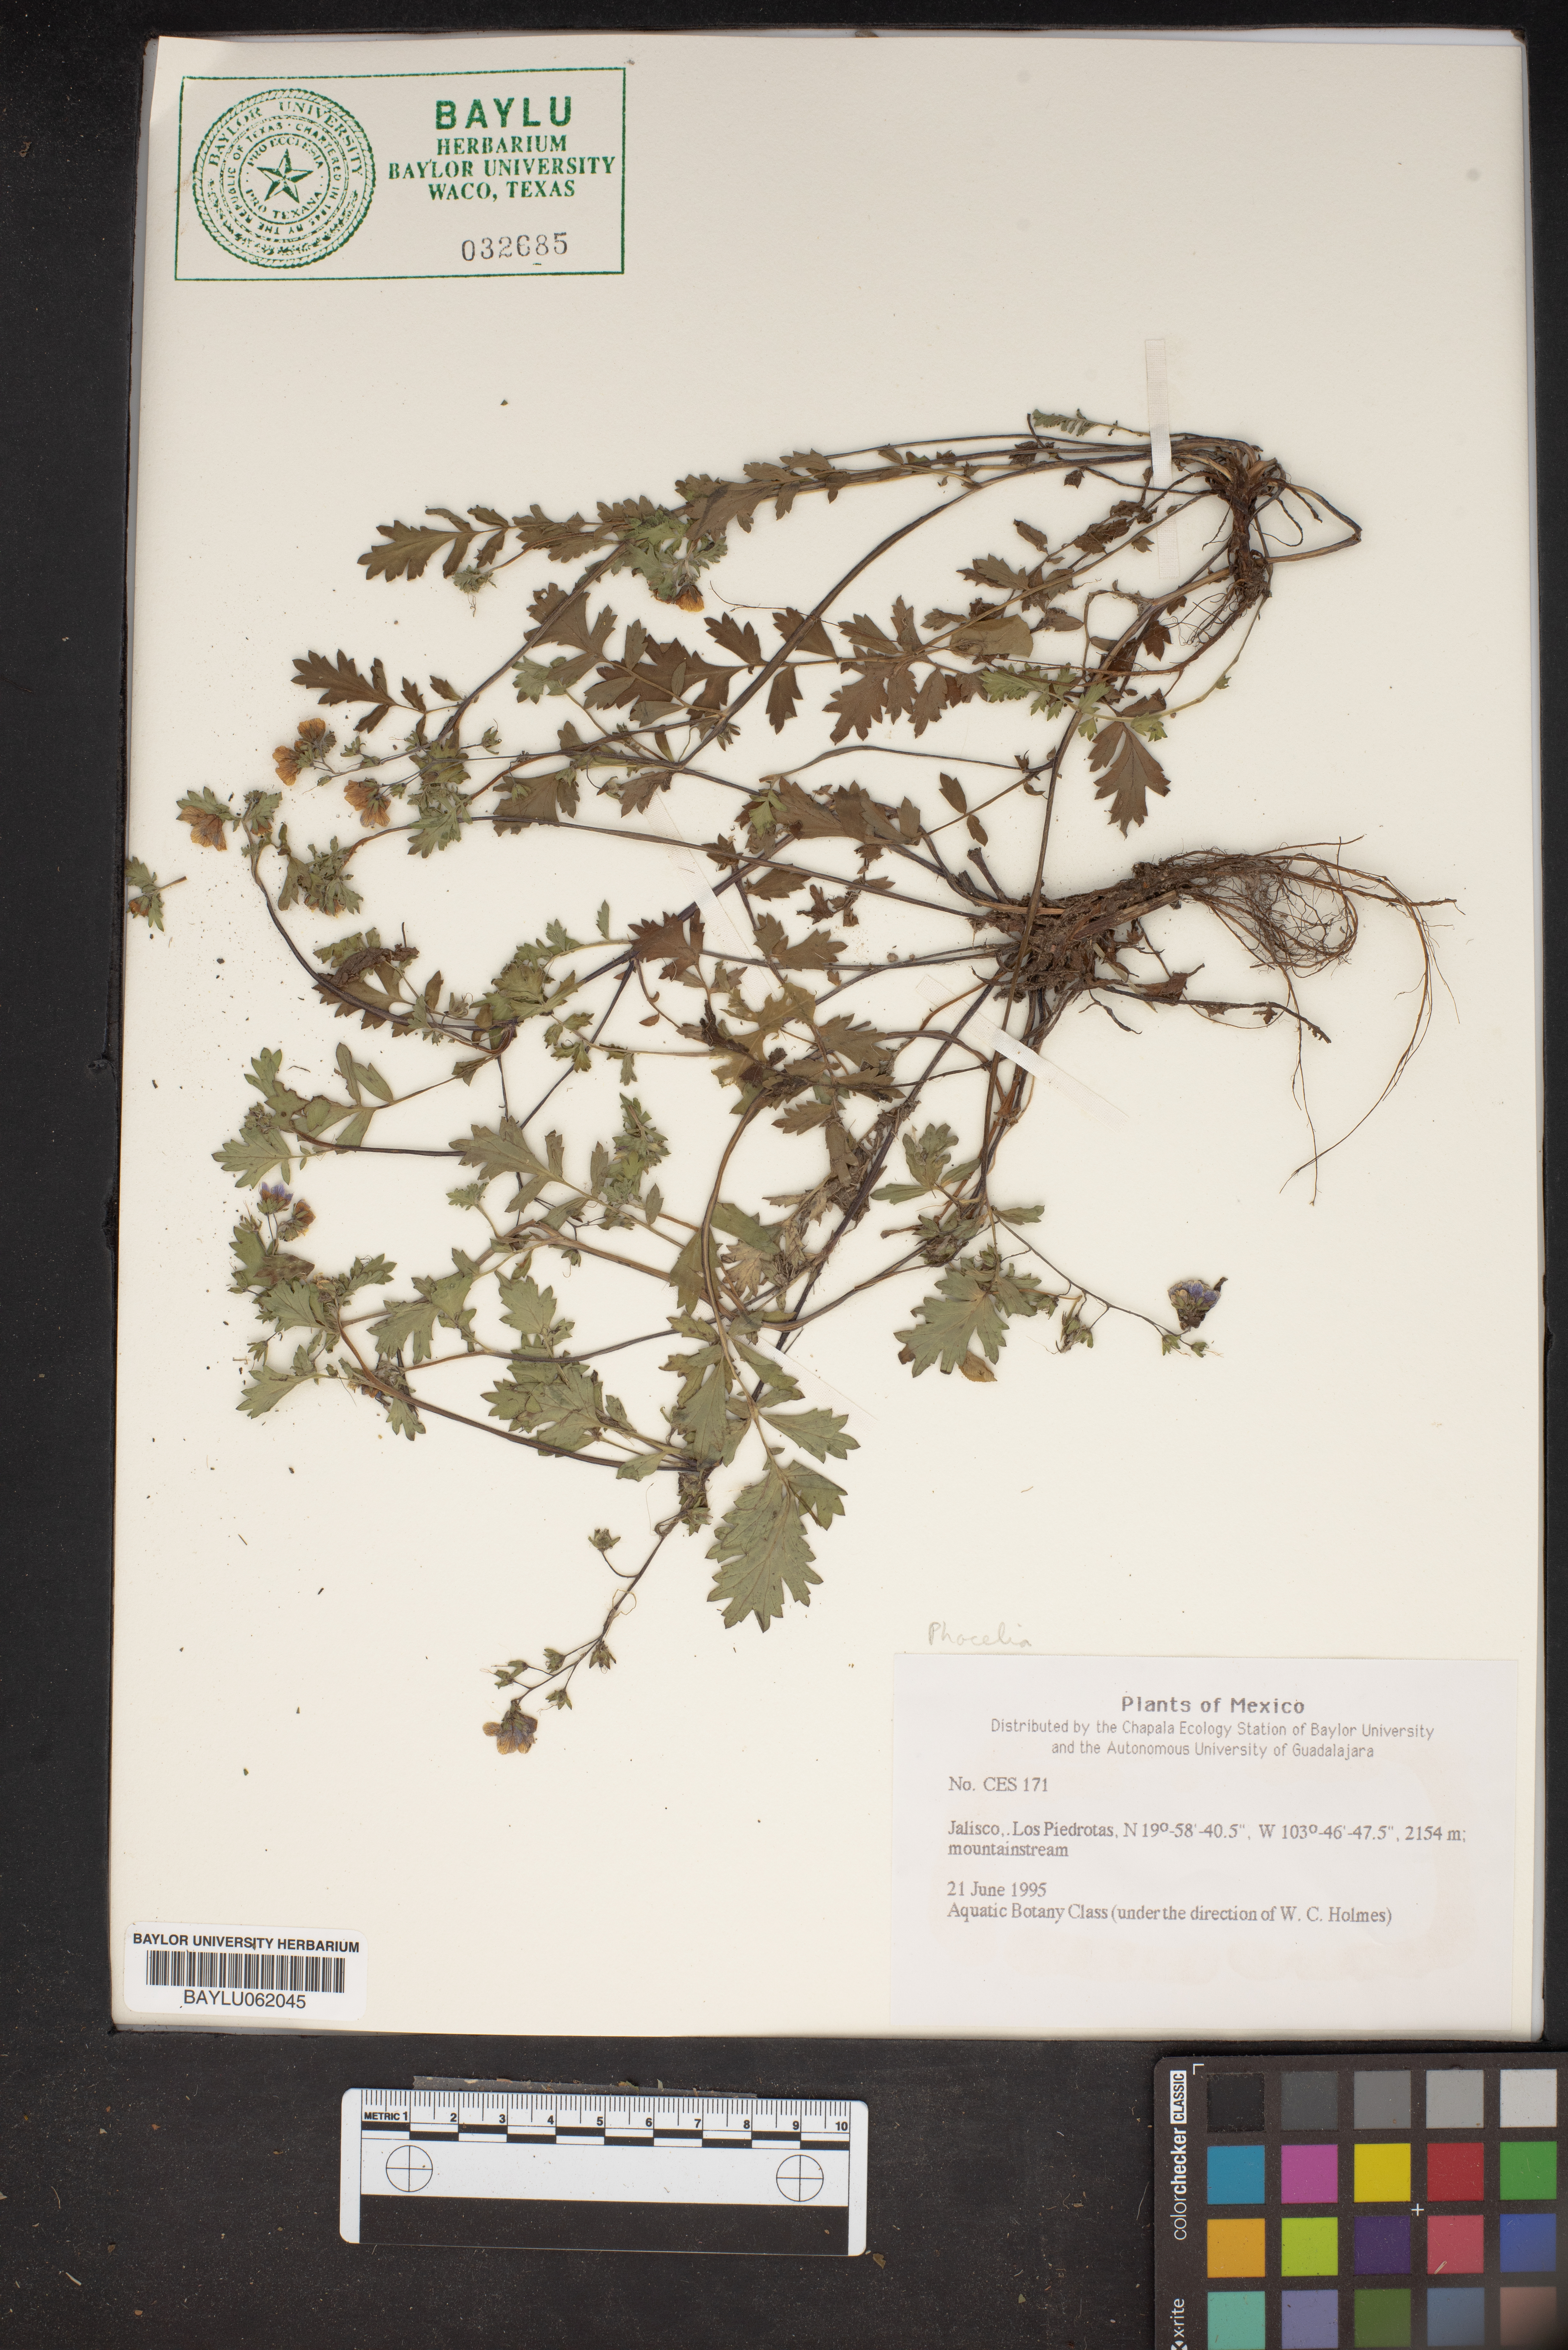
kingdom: Plantae
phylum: Tracheophyta
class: Magnoliopsida
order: Boraginales
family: Hydrophyllaceae
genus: Phacelia
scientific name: Phacelia
